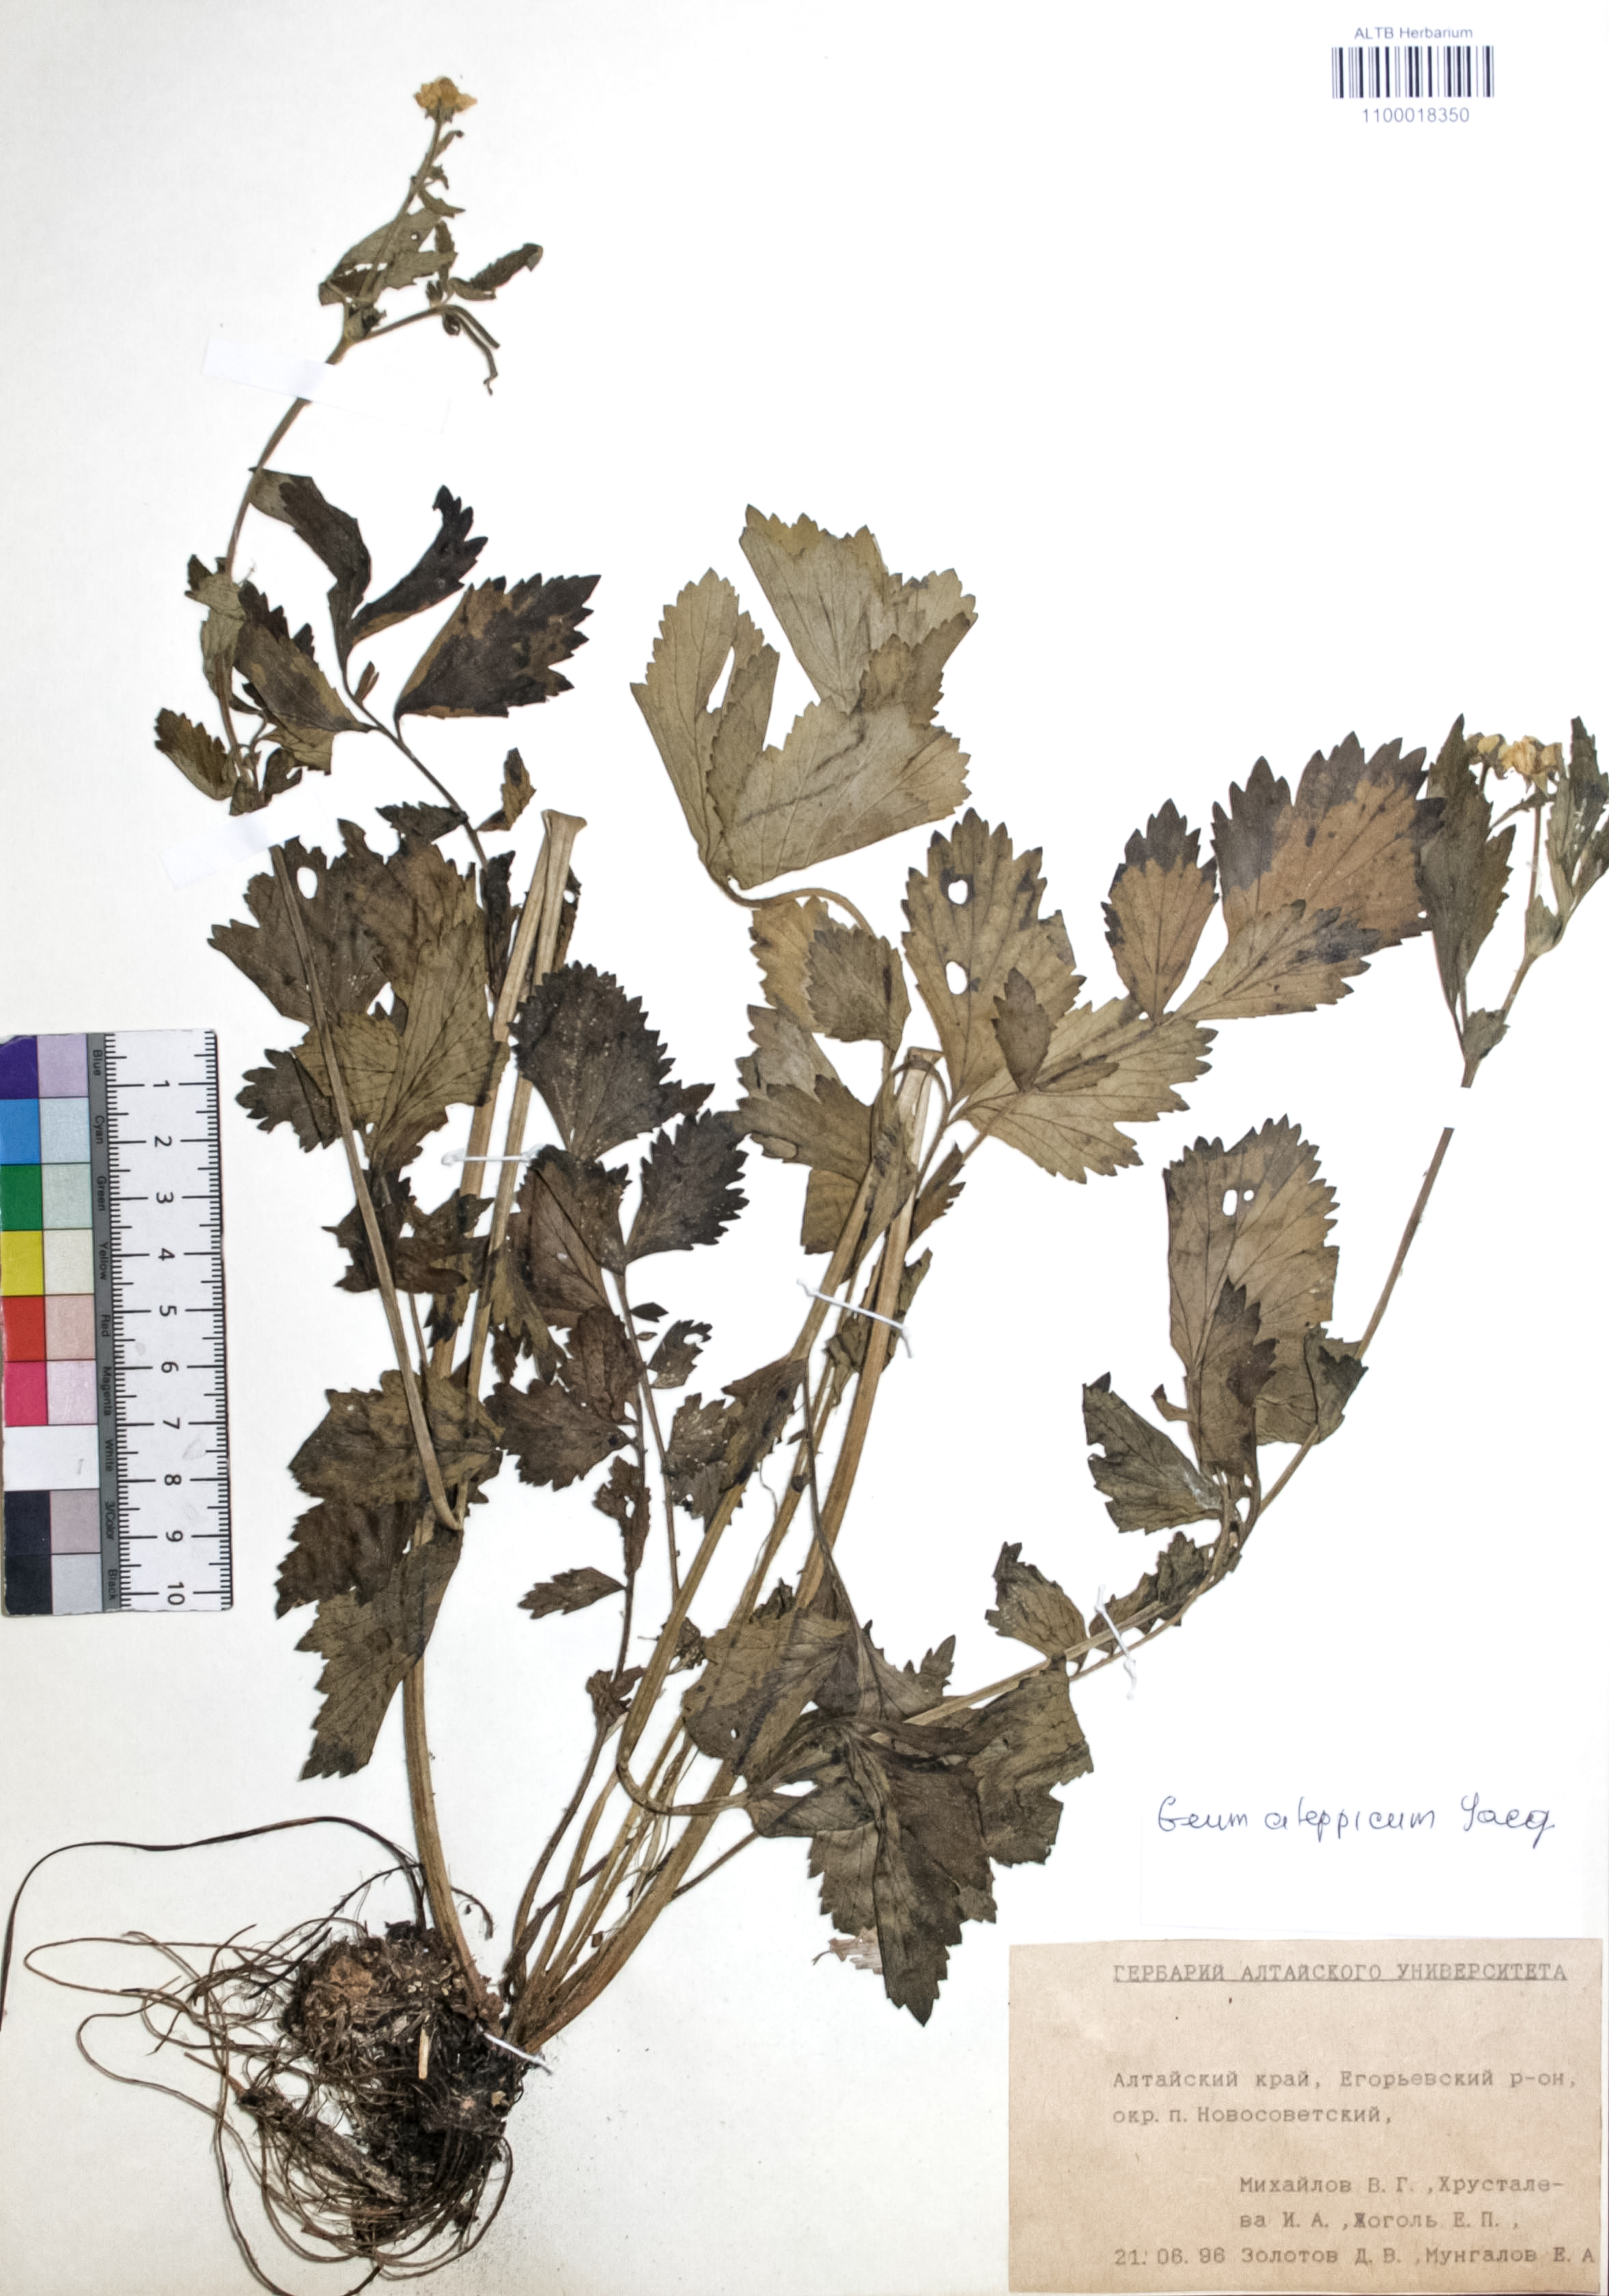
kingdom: Plantae
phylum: Tracheophyta
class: Magnoliopsida
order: Rosales
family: Rosaceae
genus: Geum
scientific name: Geum aleppicum
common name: Yellow avens
